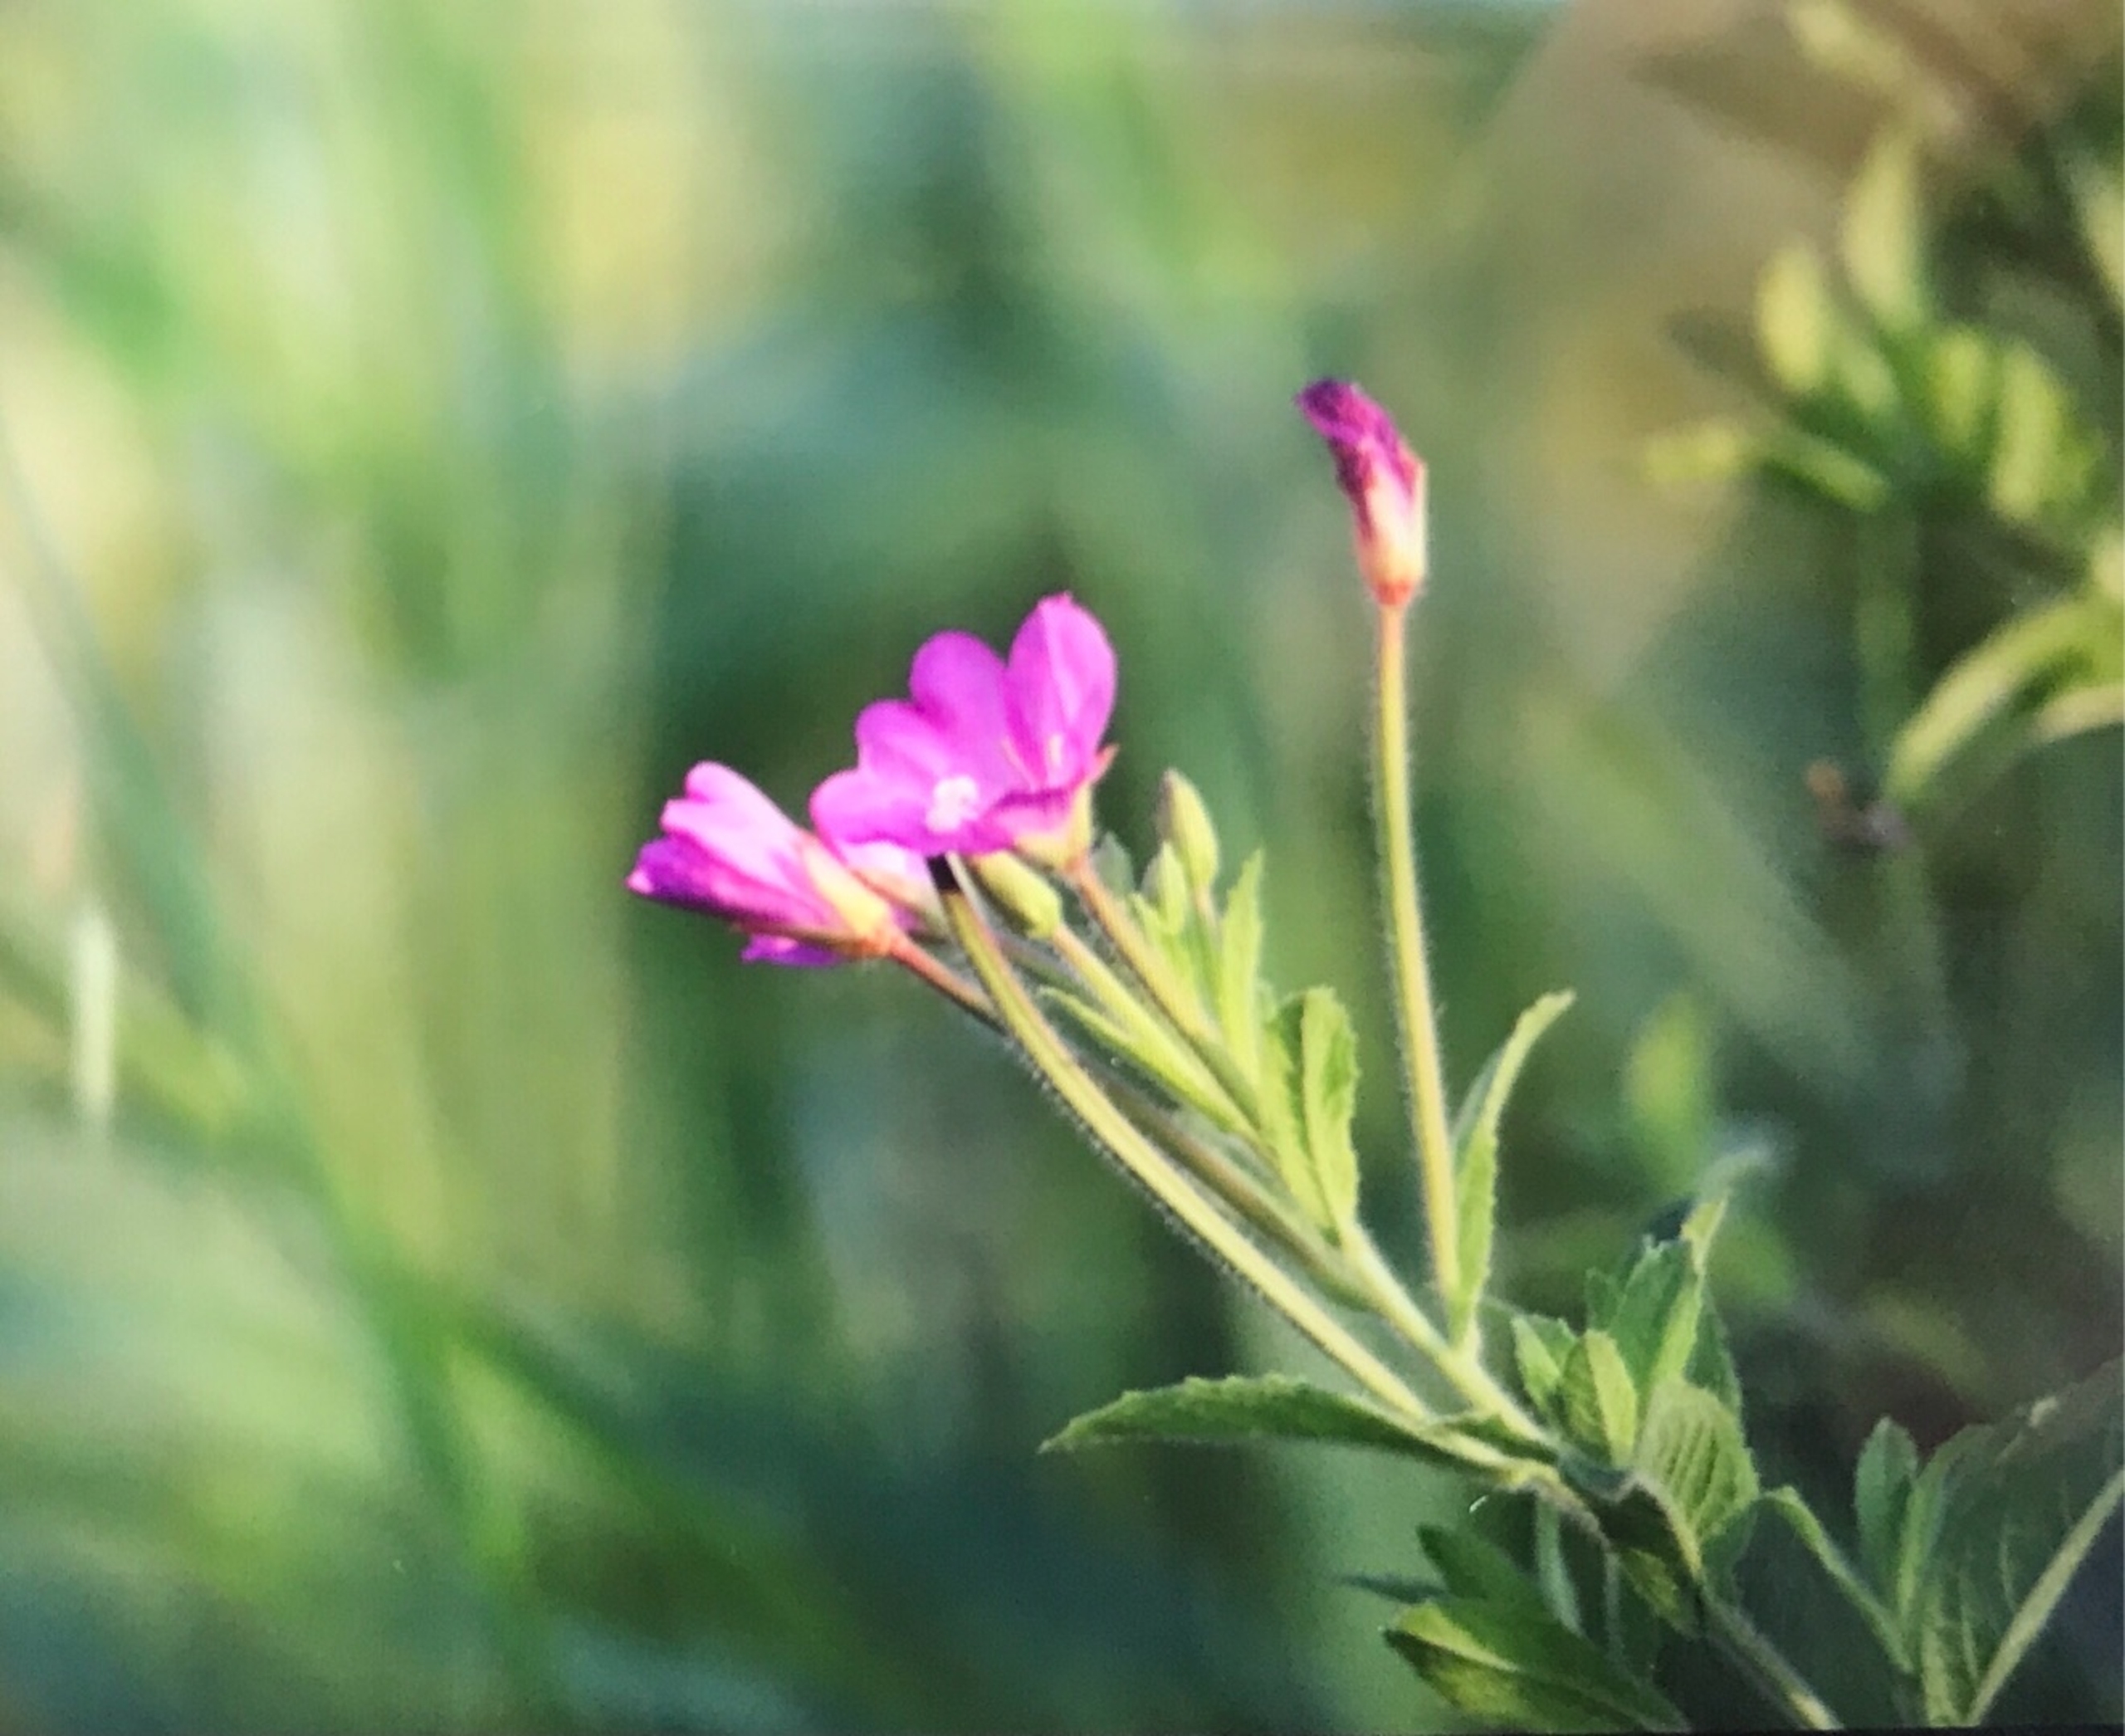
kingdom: Plantae
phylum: Tracheophyta
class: Magnoliopsida
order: Myrtales
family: Onagraceae
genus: Epilobium
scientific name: Epilobium hirsutum
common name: Lådden dueurt
